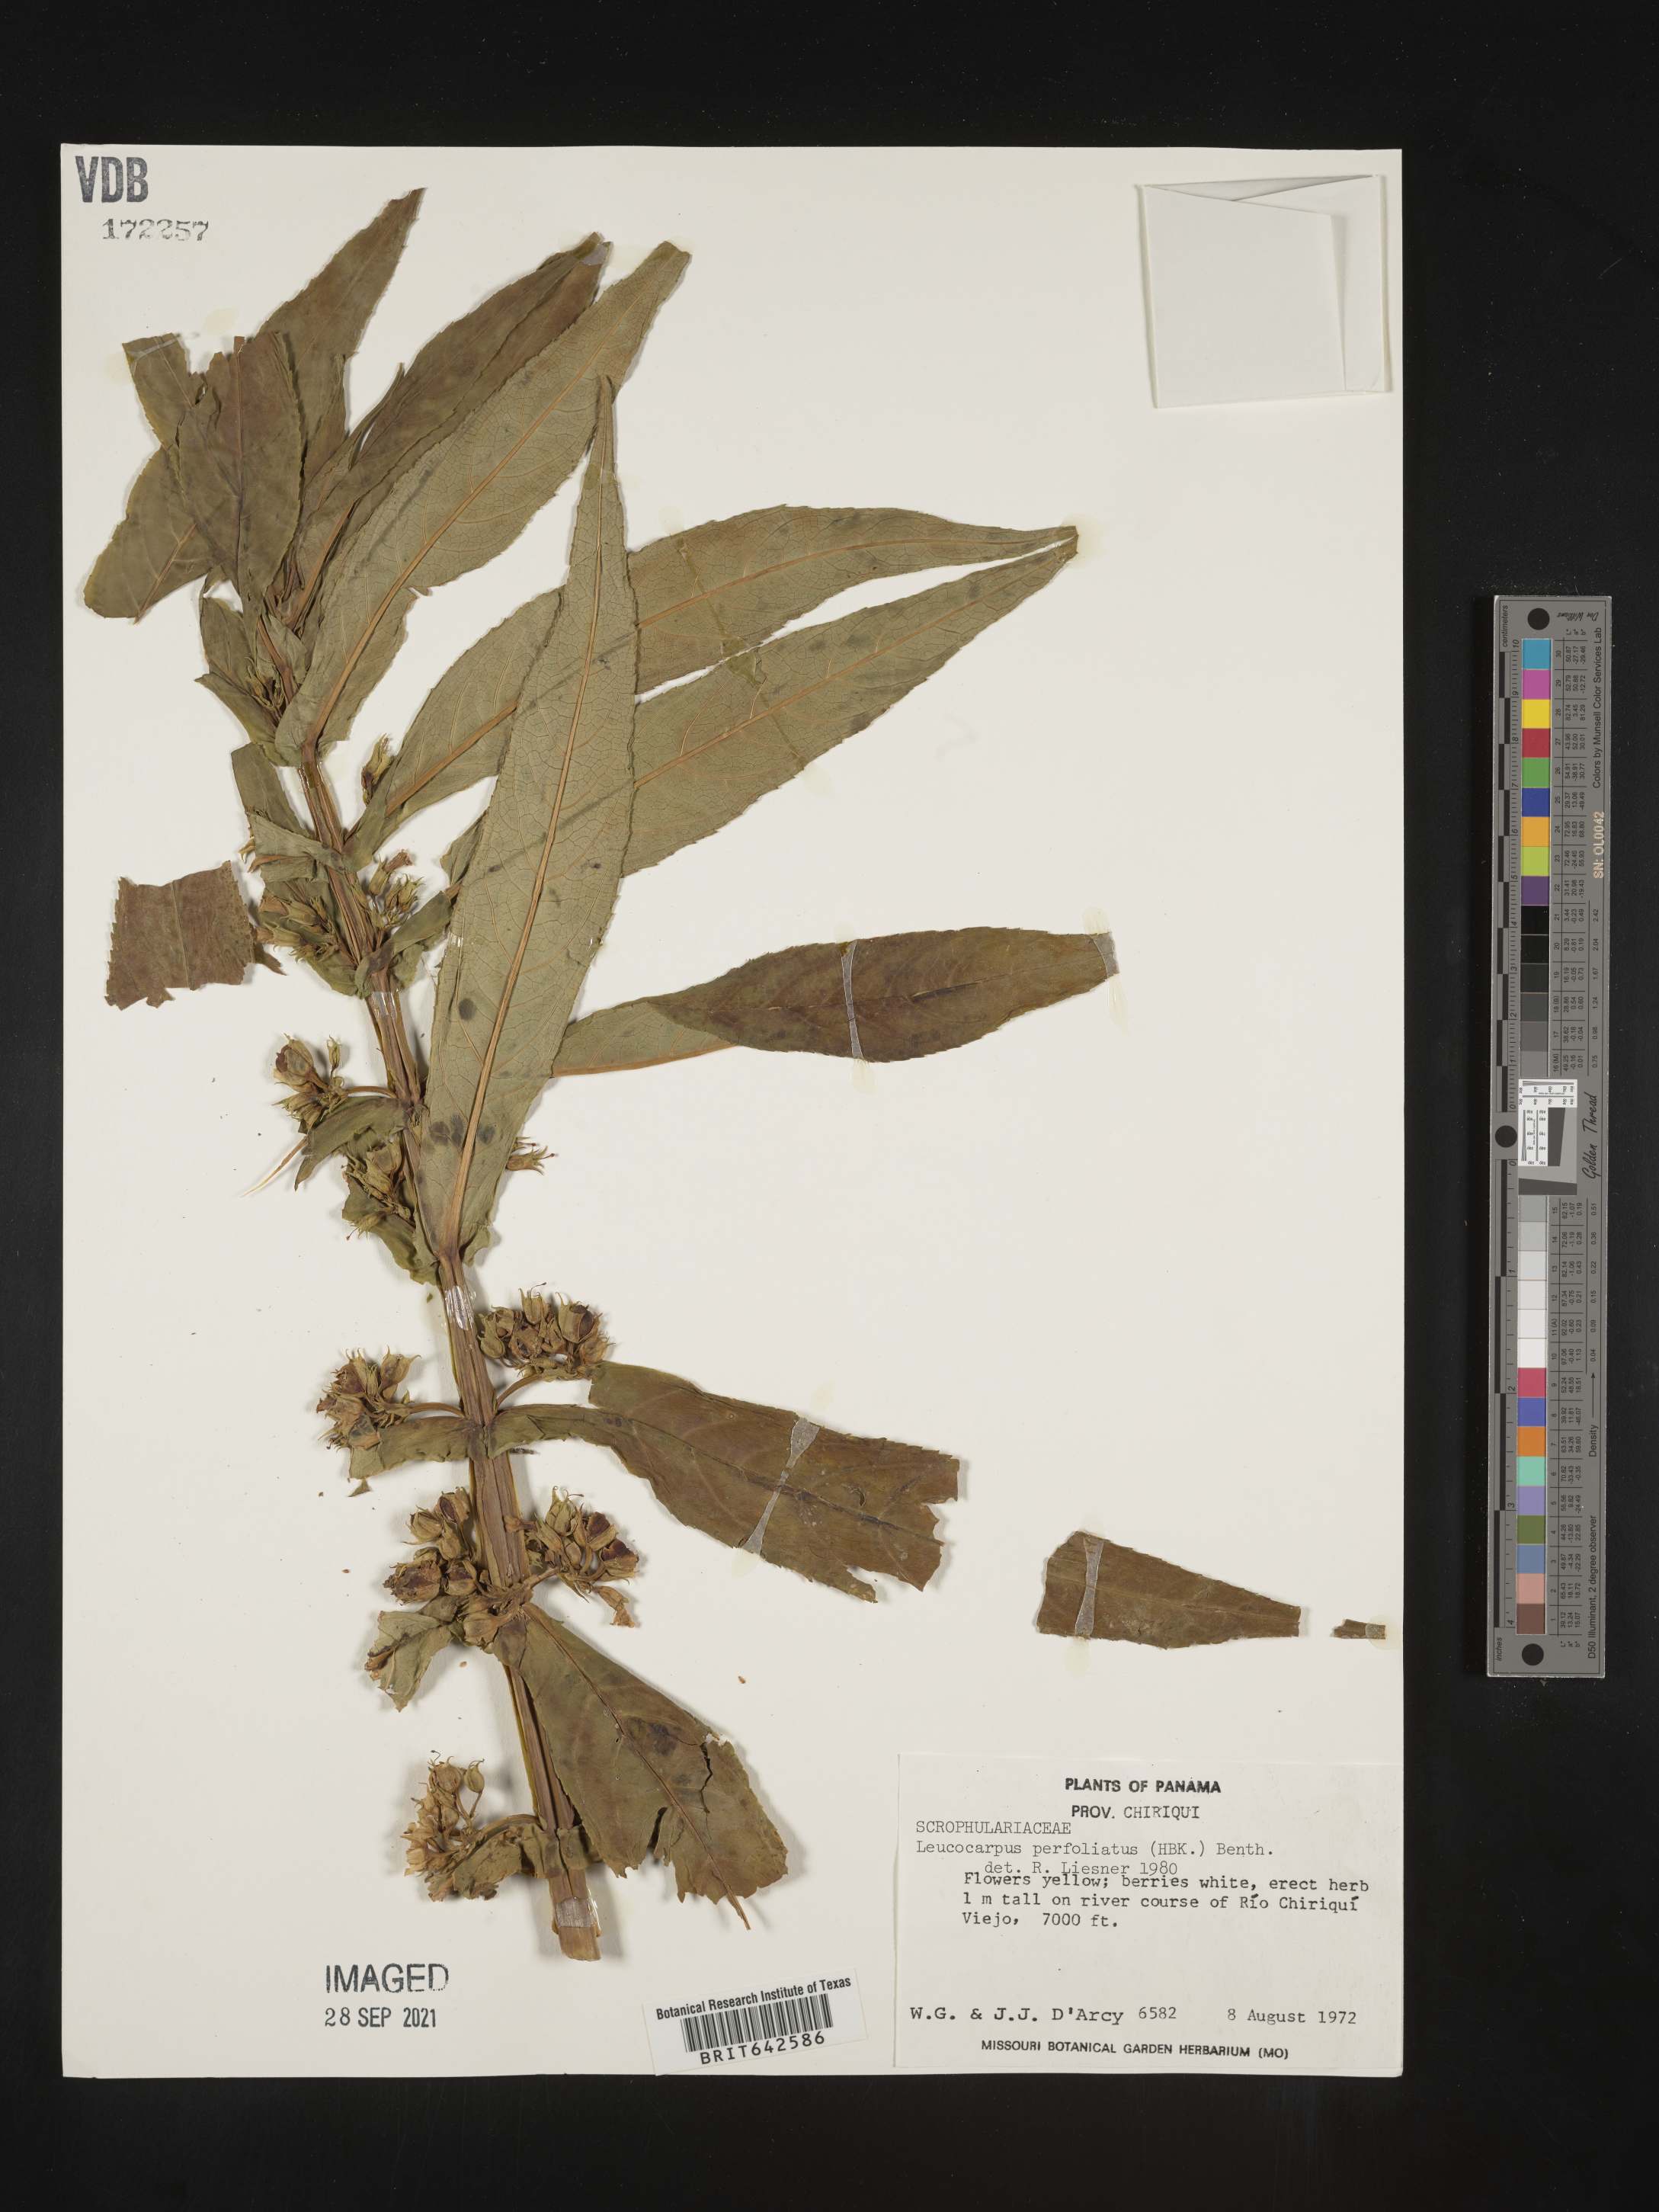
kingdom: Plantae
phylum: Tracheophyta
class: Magnoliopsida
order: Lamiales
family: Phrymaceae
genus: Leucocarpus
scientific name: Leucocarpus
